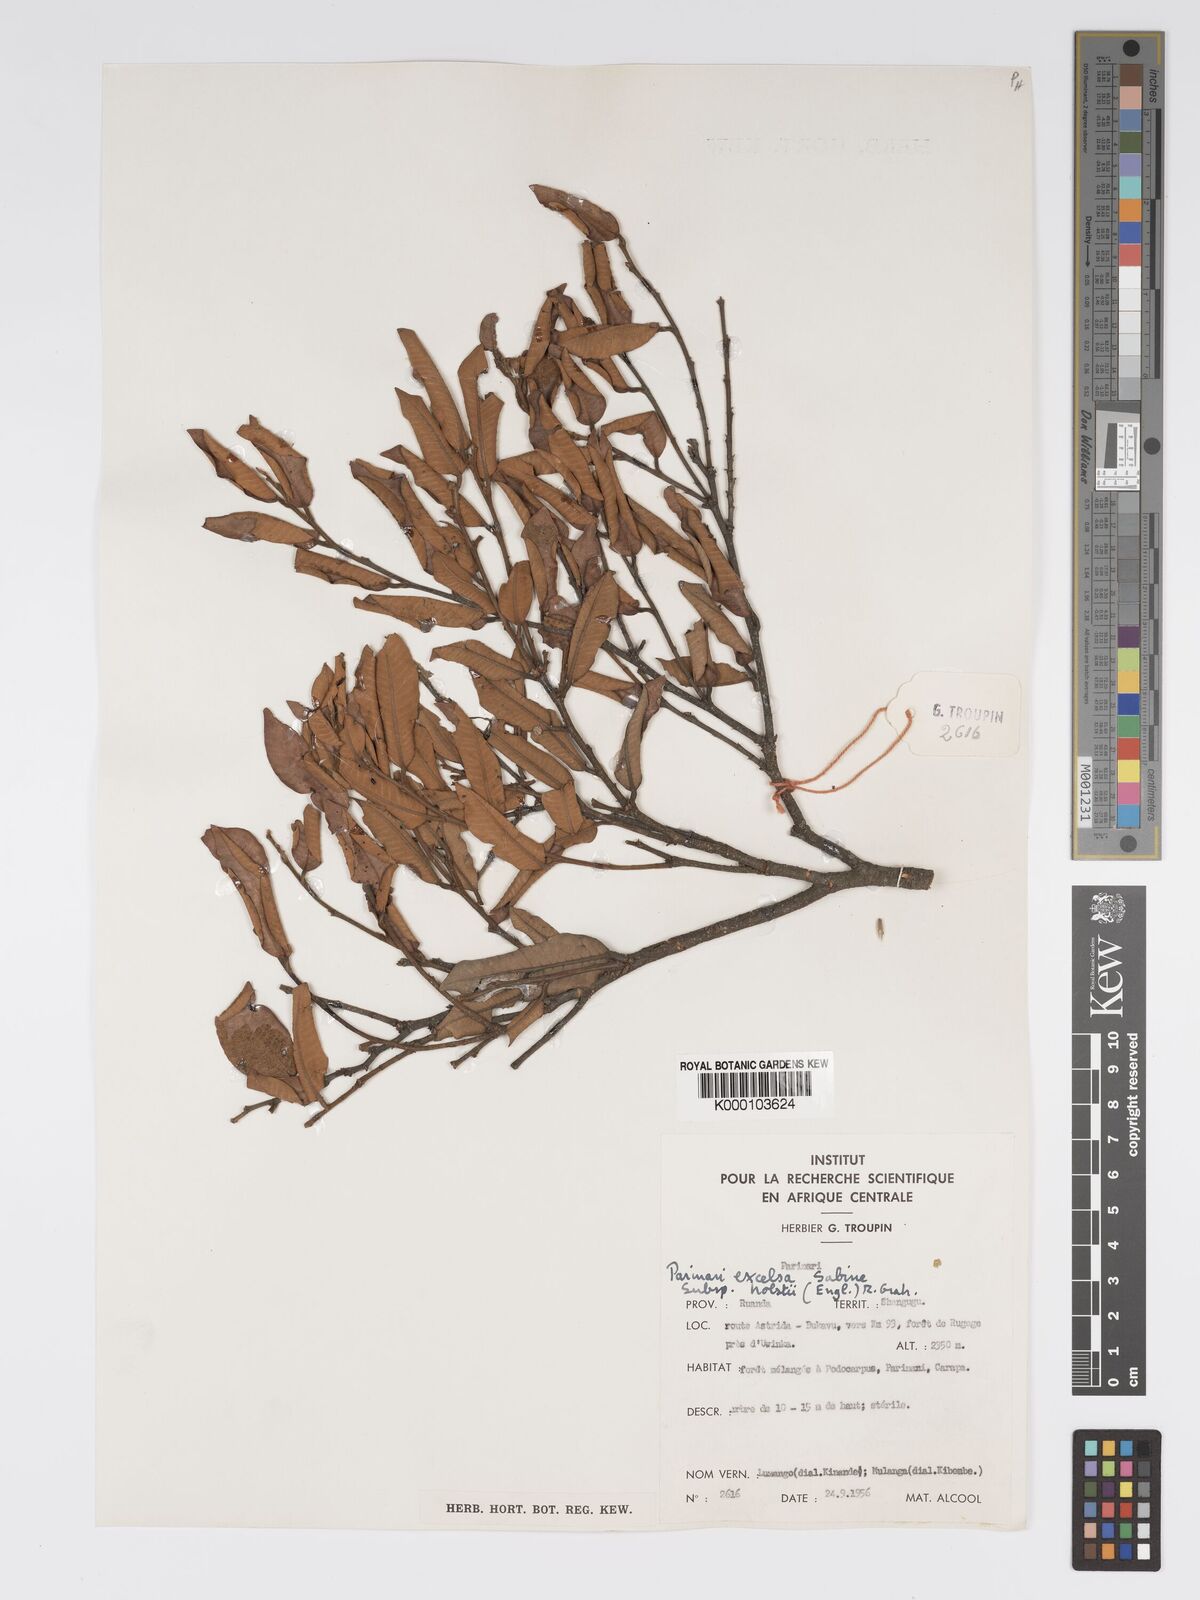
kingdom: Plantae
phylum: Tracheophyta
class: Magnoliopsida
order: Malpighiales
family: Chrysobalanaceae
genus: Parinari
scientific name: Parinari excelsa
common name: Guinea-plum
